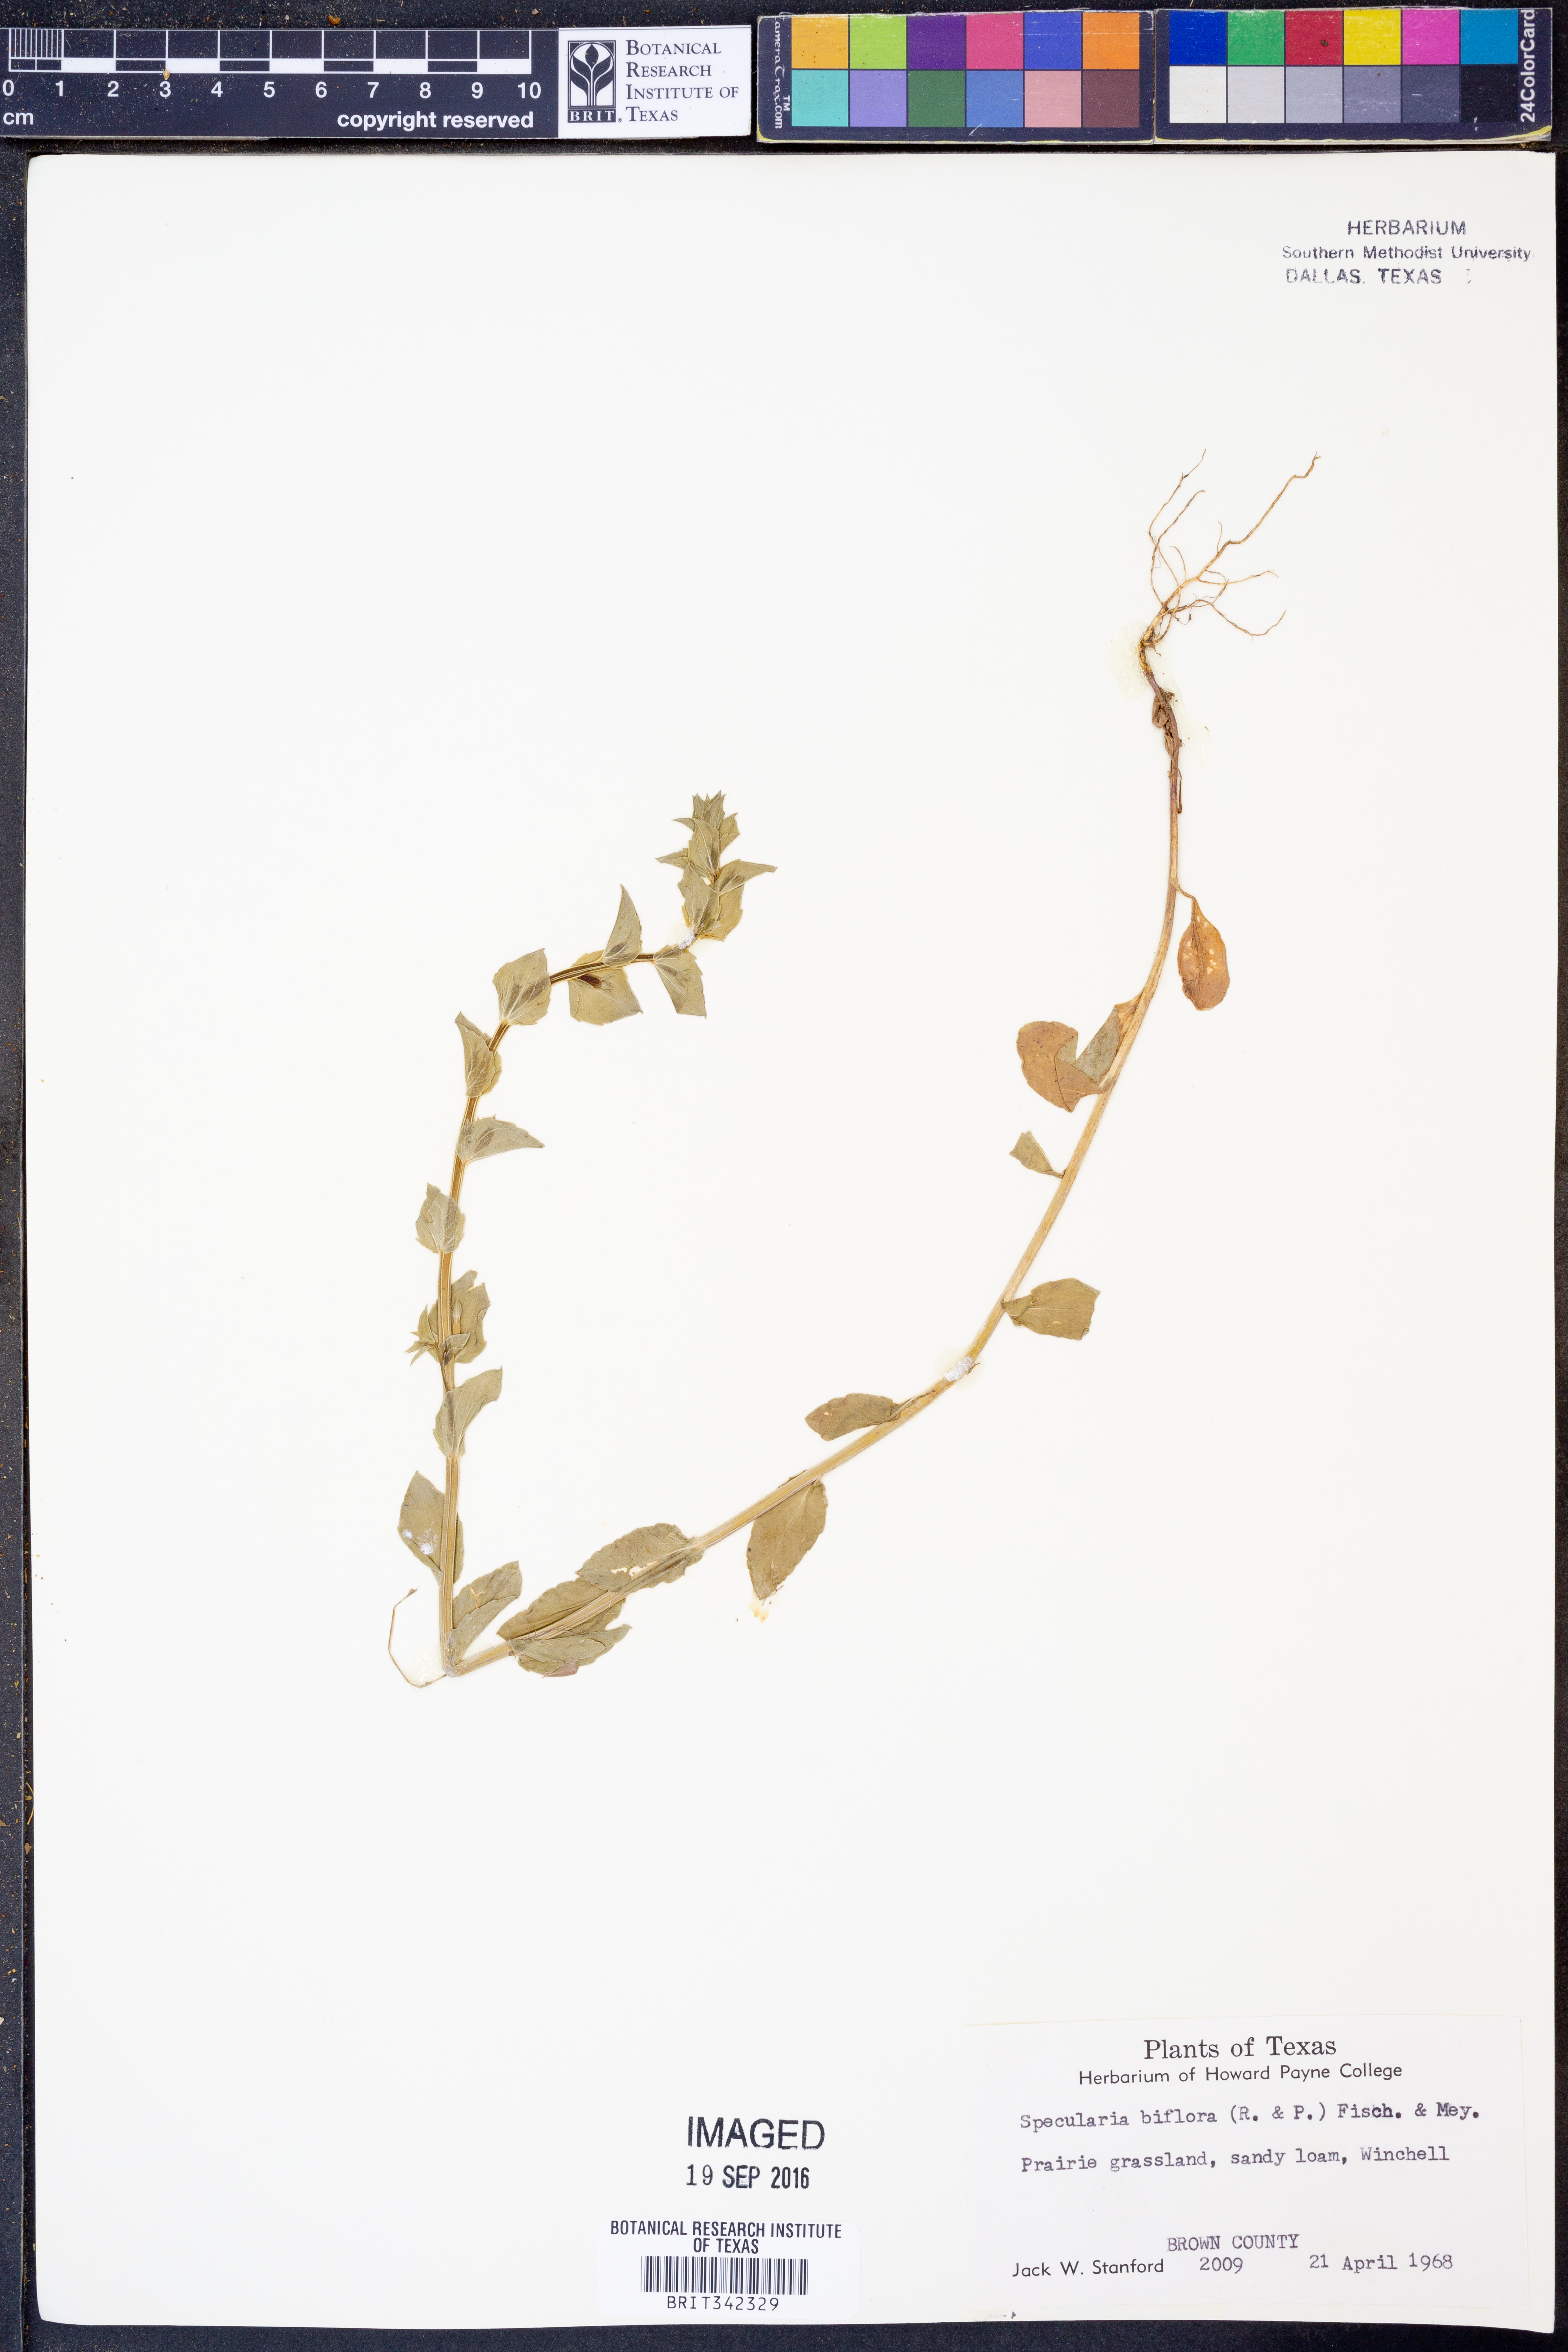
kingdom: Plantae
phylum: Tracheophyta
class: Magnoliopsida
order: Asterales
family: Campanulaceae
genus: Triodanis
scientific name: Triodanis perfoliata
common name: Clasping venus' looking-glass
